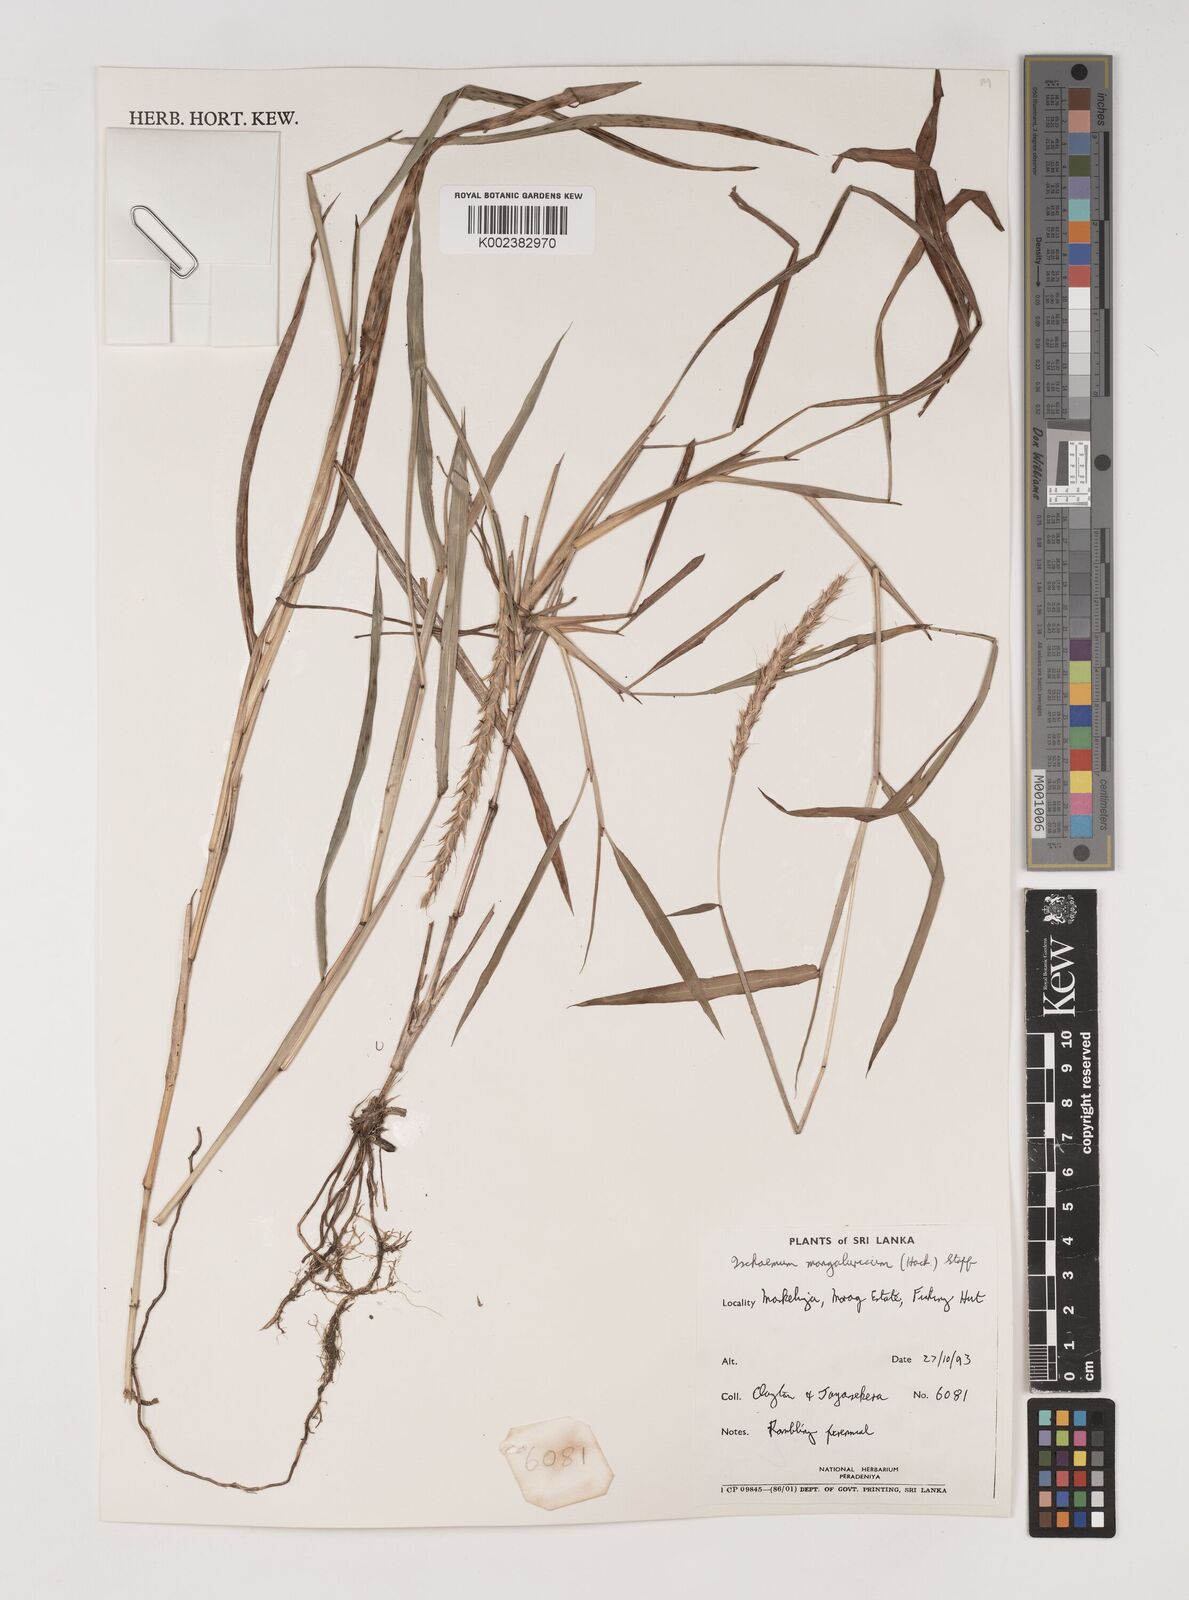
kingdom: Plantae
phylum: Tracheophyta
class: Liliopsida
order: Poales
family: Poaceae
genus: Ischaemum
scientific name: Ischaemum barbatum
